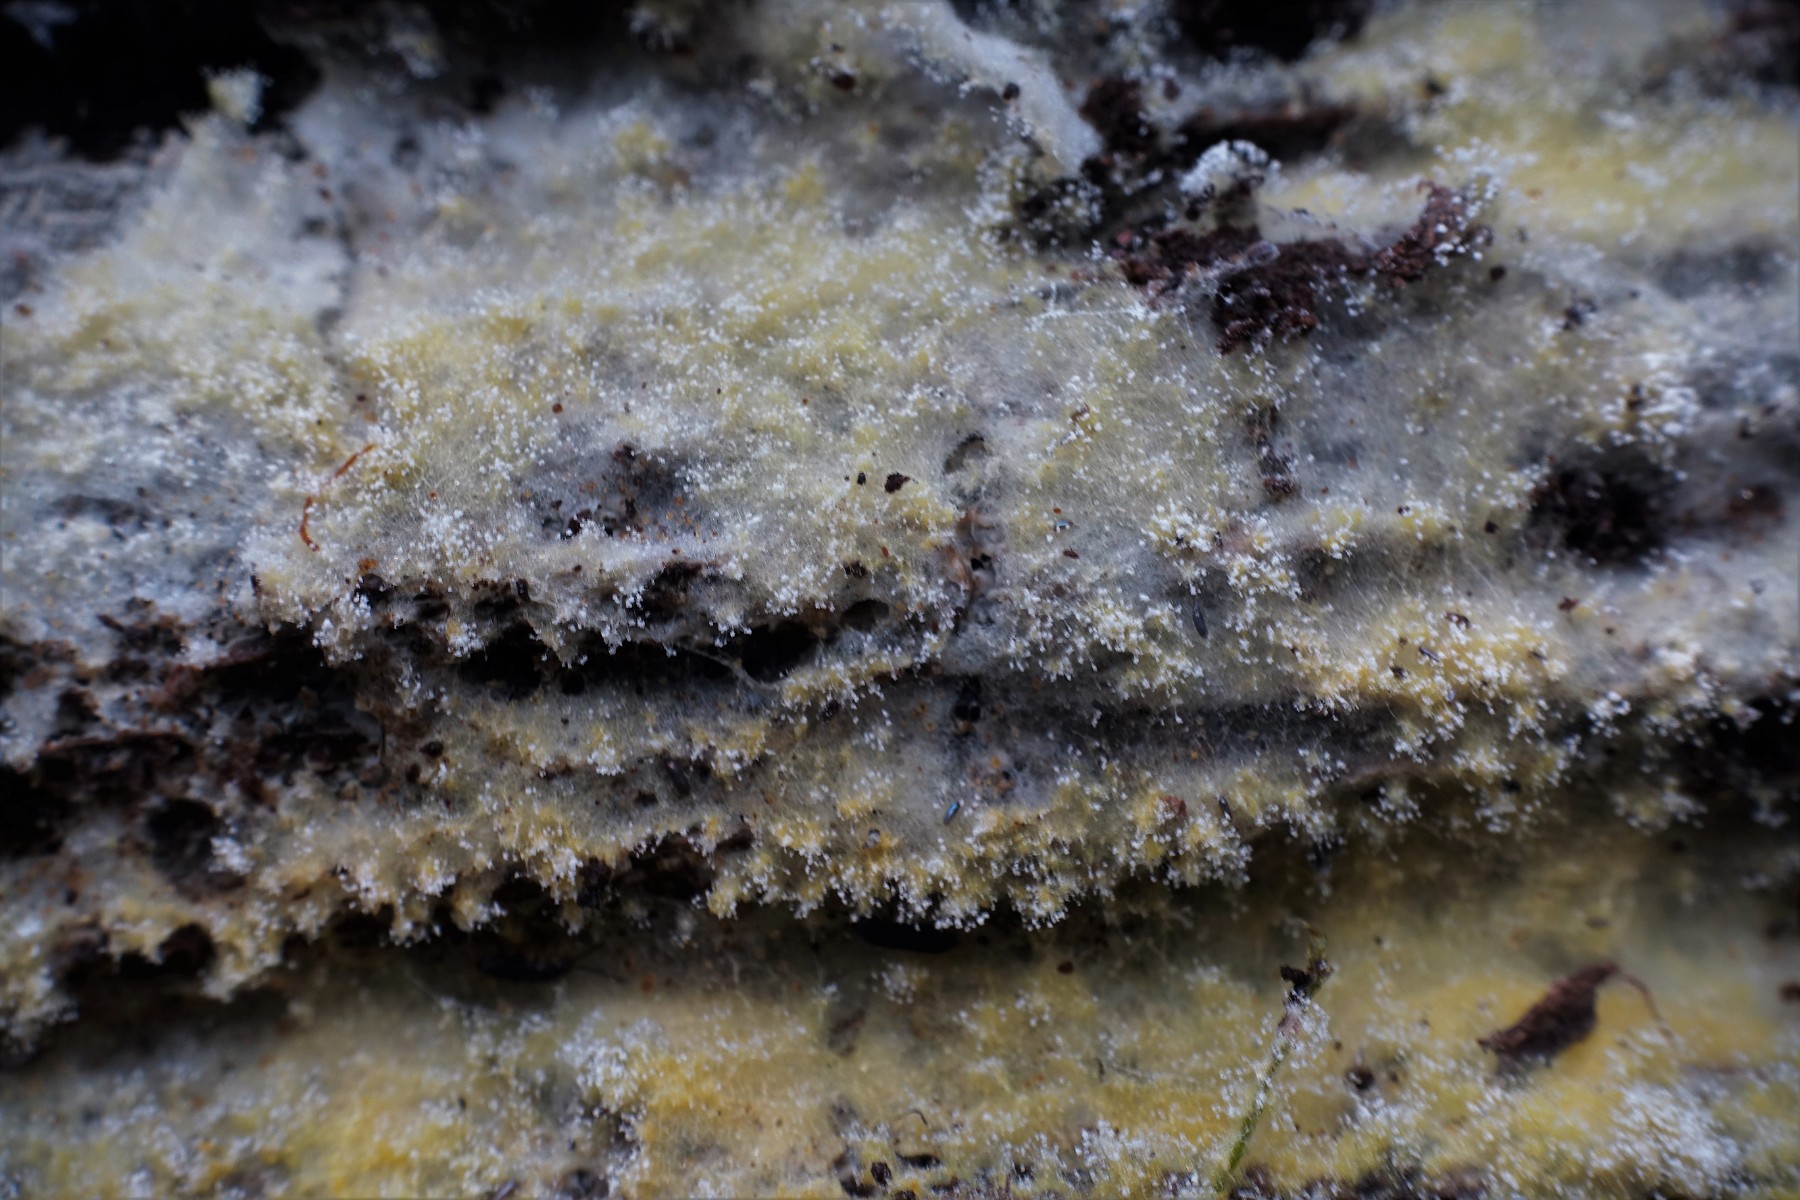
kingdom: Fungi
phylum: Ascomycota
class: Sordariomycetes
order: Hypocreales
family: Hypocreaceae
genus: Hypomyces
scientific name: Hypomyces aurantius
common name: almindelig snylteskorpe
